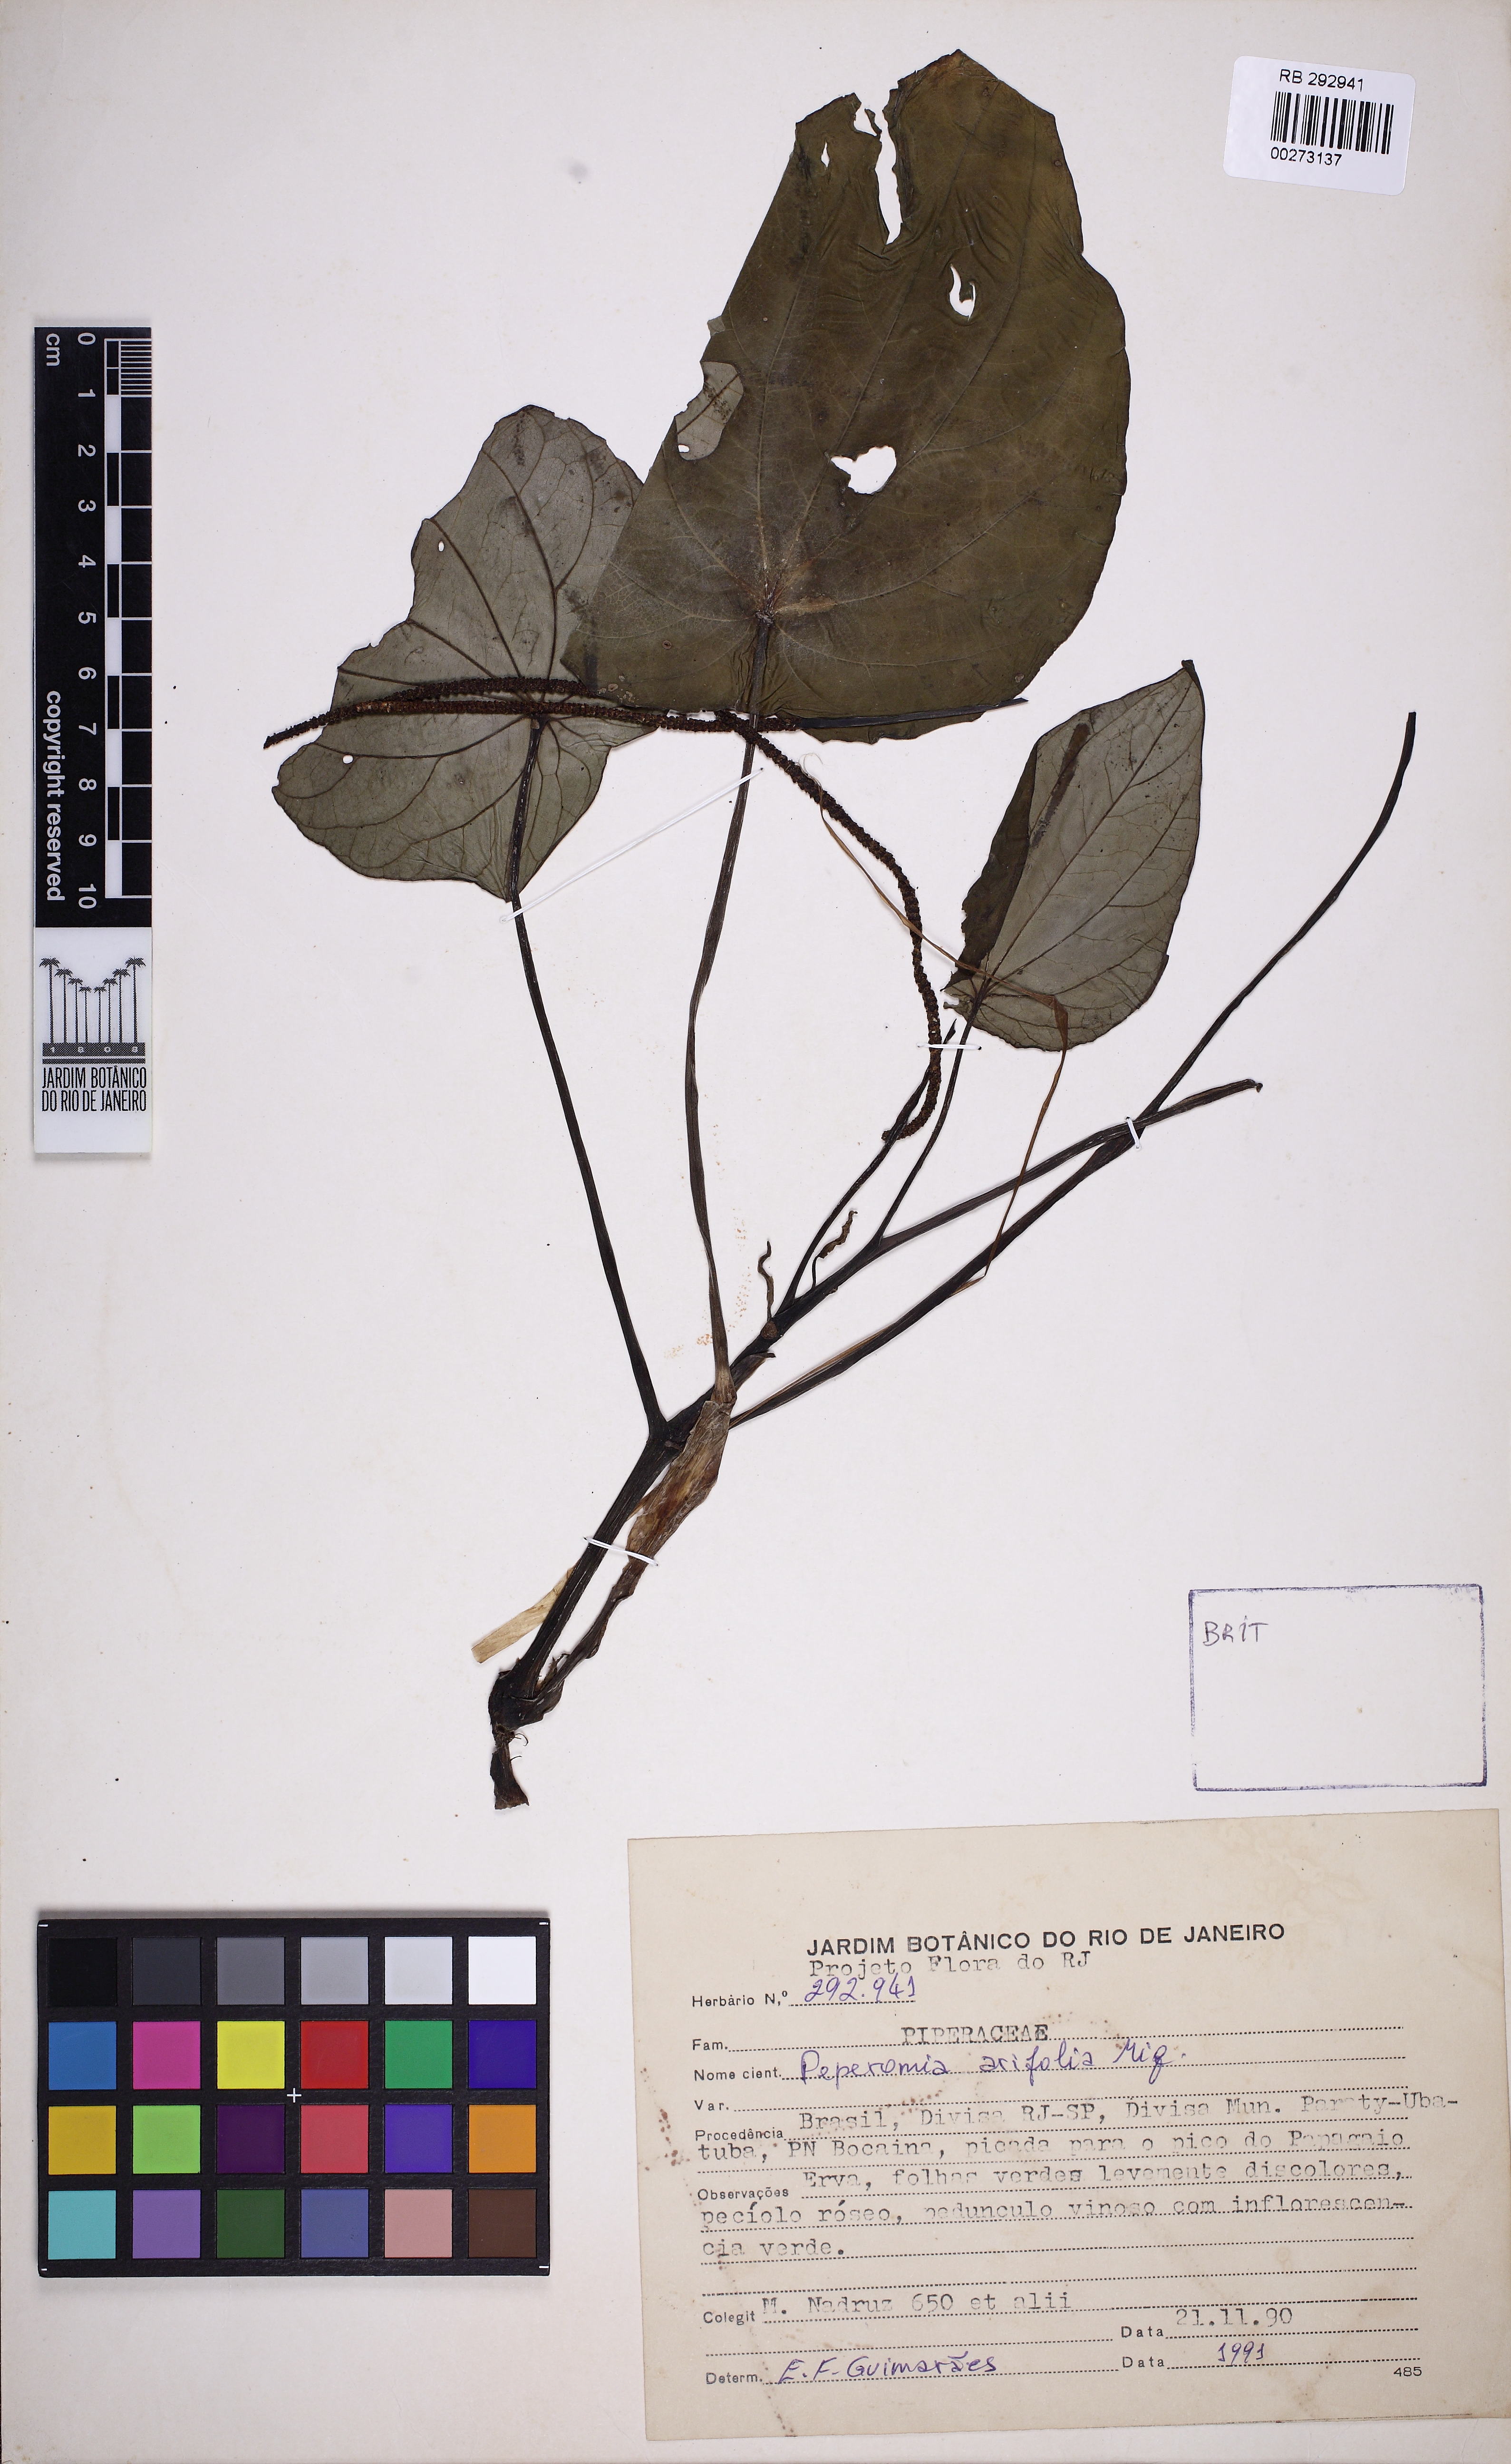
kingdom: Plantae
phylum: Tracheophyta
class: Magnoliopsida
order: Piperales
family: Piperaceae
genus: Peperomia
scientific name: Peperomia arifolia
